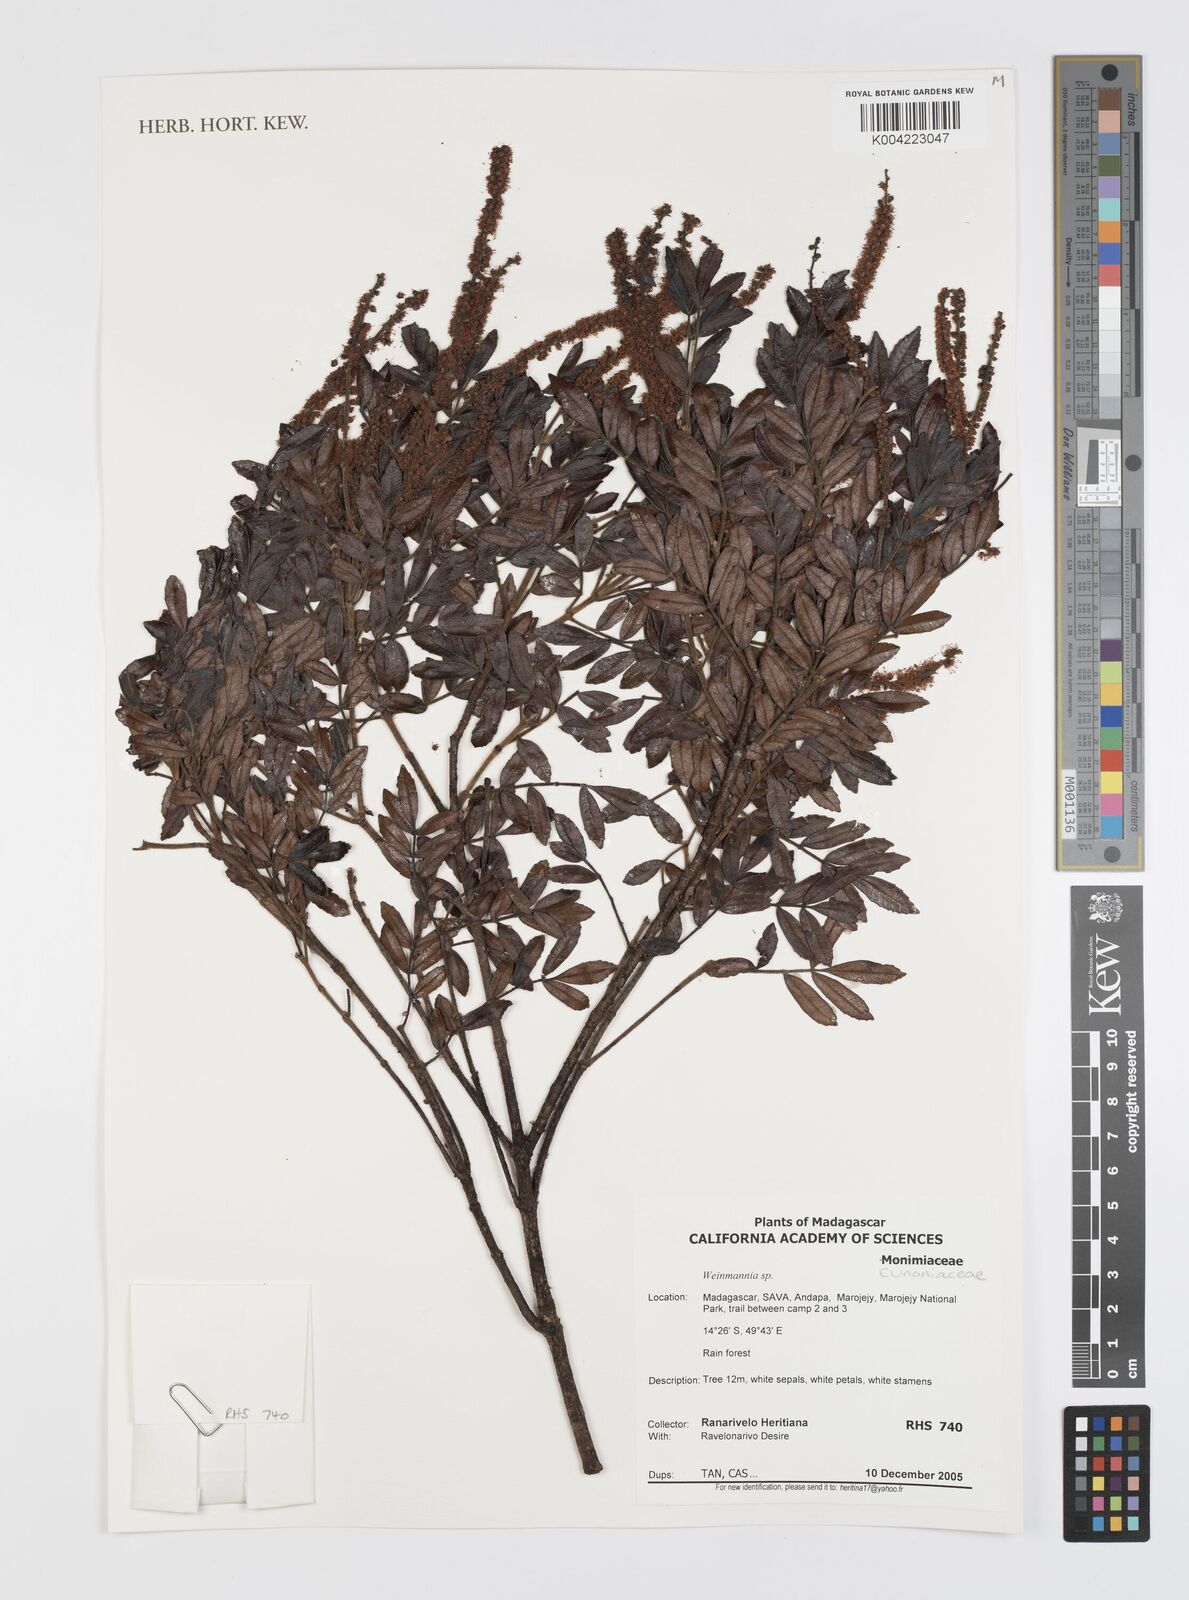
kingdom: Plantae
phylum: Tracheophyta
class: Magnoliopsida
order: Oxalidales
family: Cunoniaceae
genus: Weinmannia
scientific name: Weinmannia
